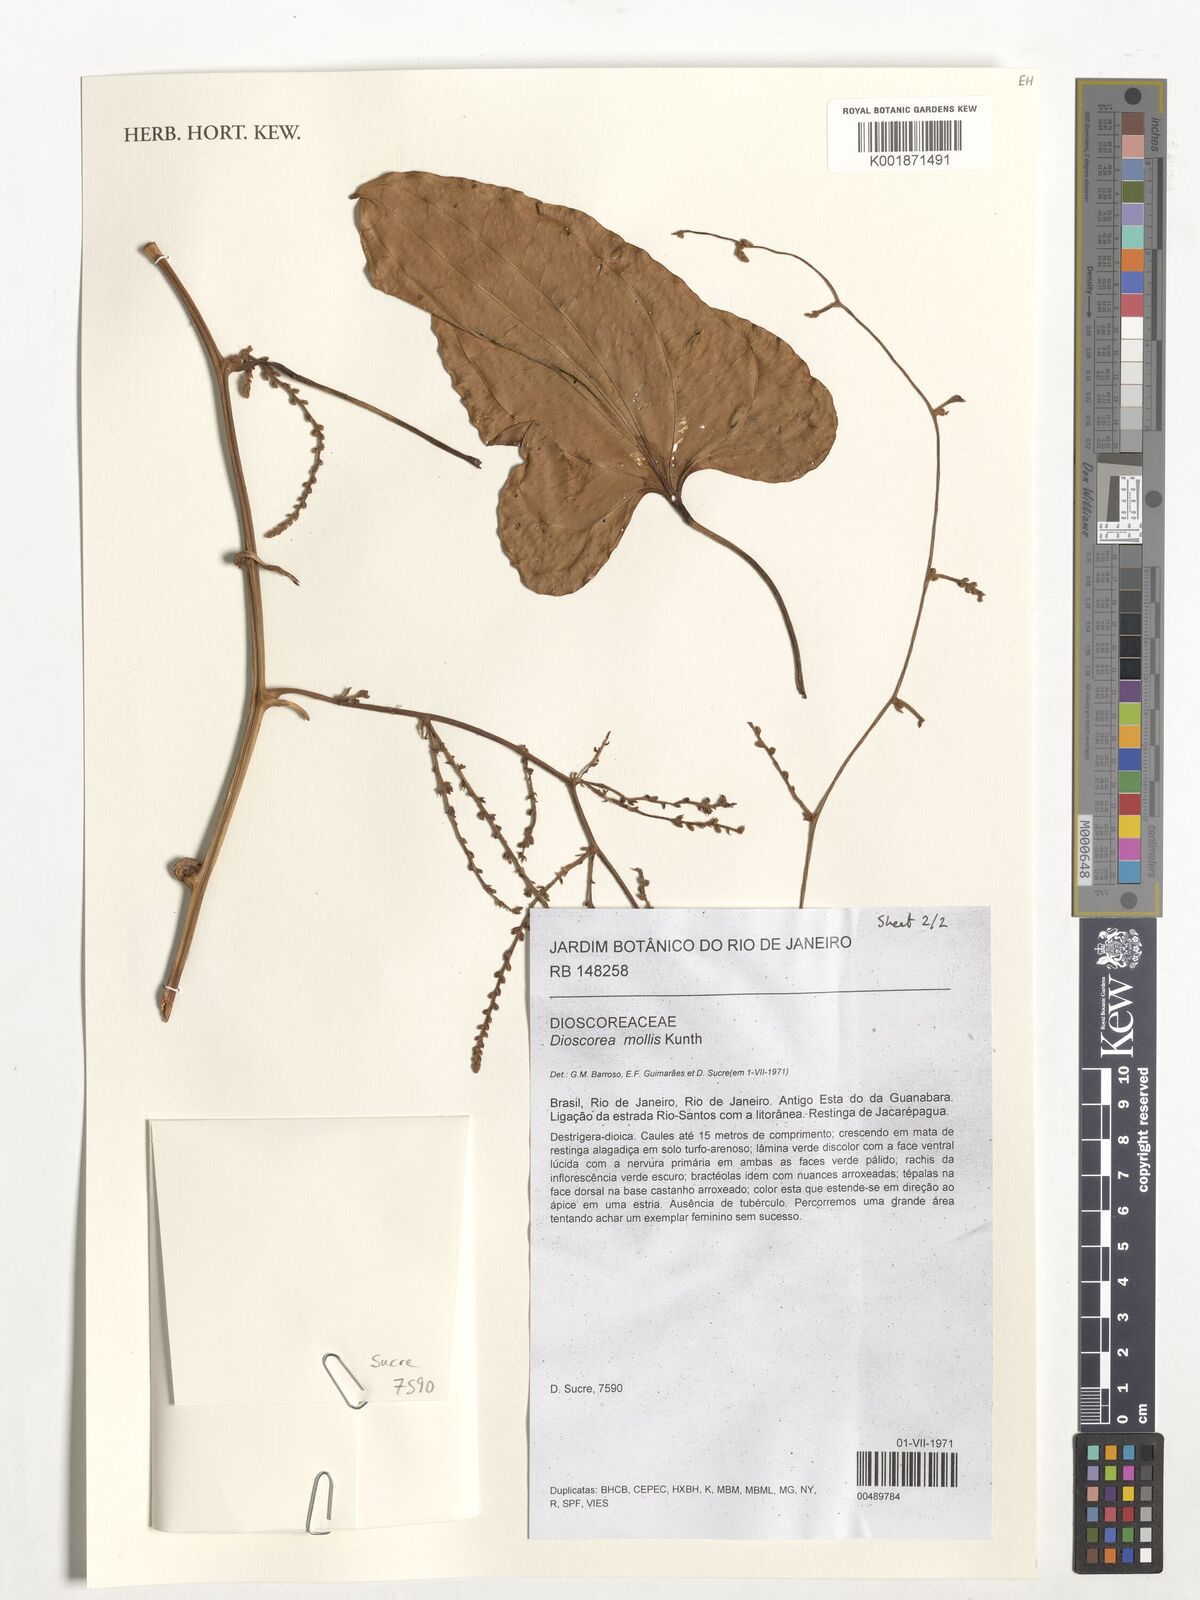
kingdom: Plantae
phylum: Tracheophyta
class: Liliopsida
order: Dioscoreales
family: Dioscoreaceae
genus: Dioscorea
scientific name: Dioscorea mollis
